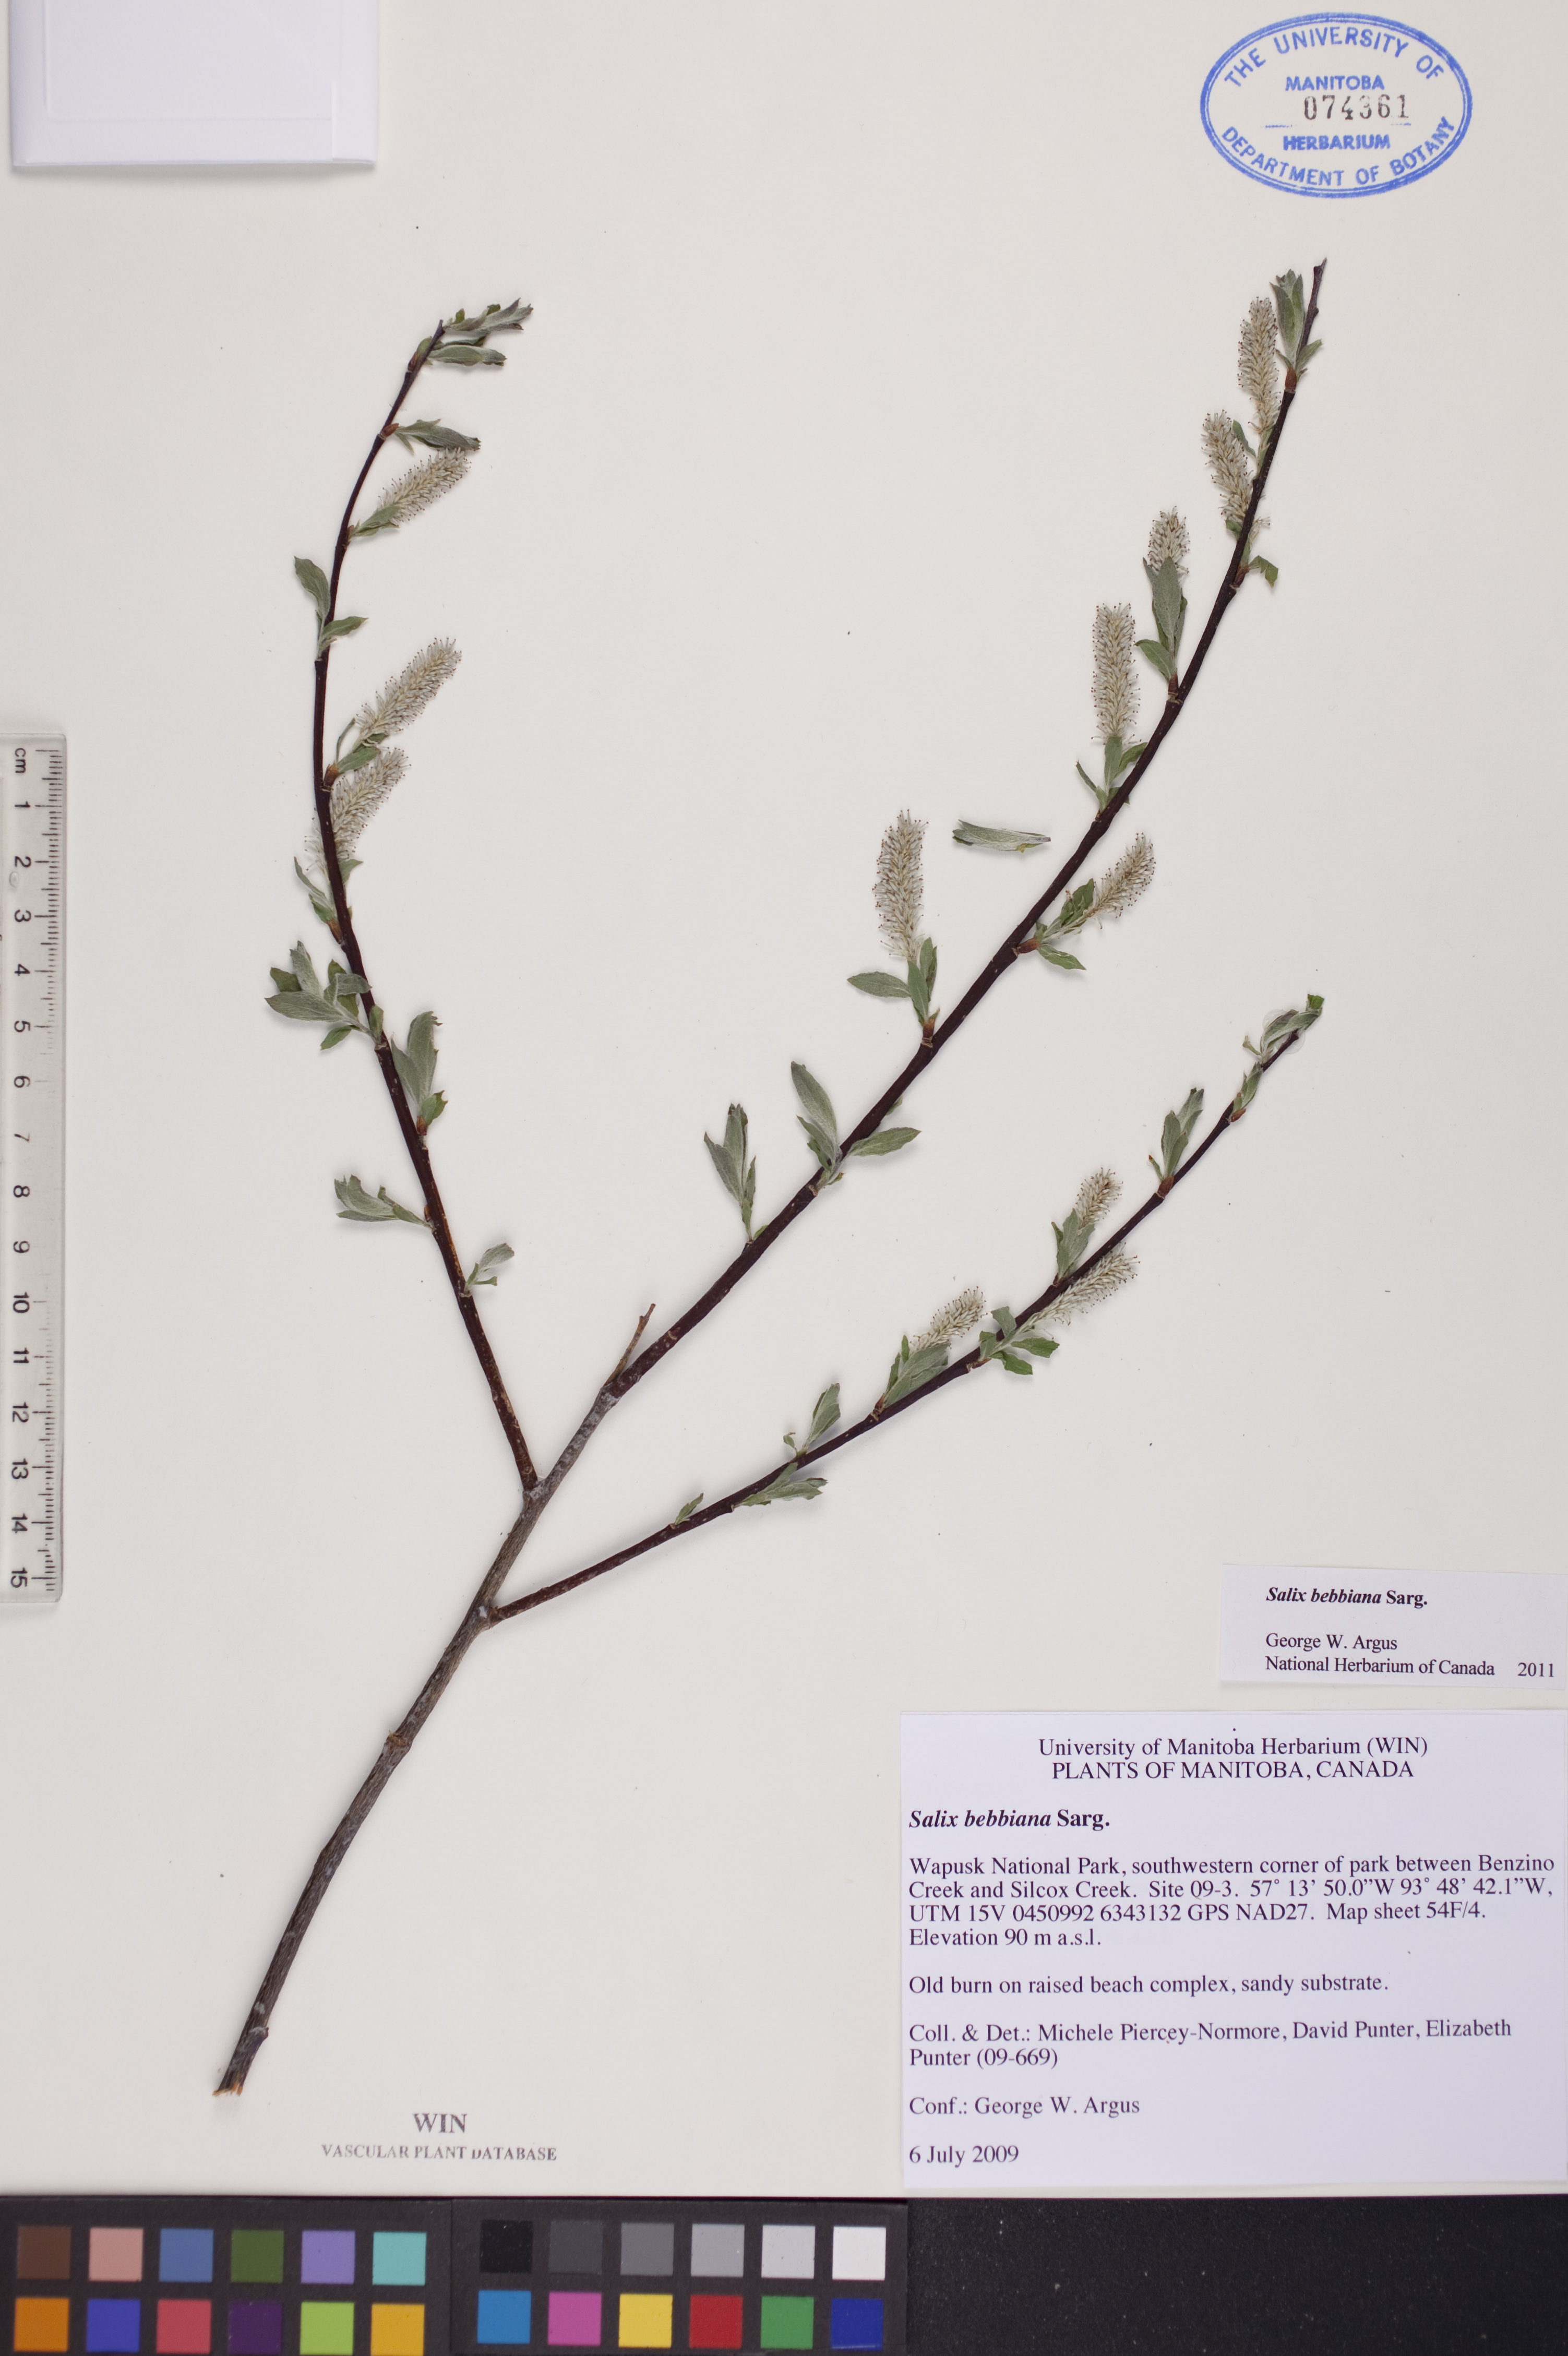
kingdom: Plantae
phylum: Tracheophyta
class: Magnoliopsida
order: Malpighiales
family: Salicaceae
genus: Salix
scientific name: Salix bebbiana
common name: Bebb's willow
